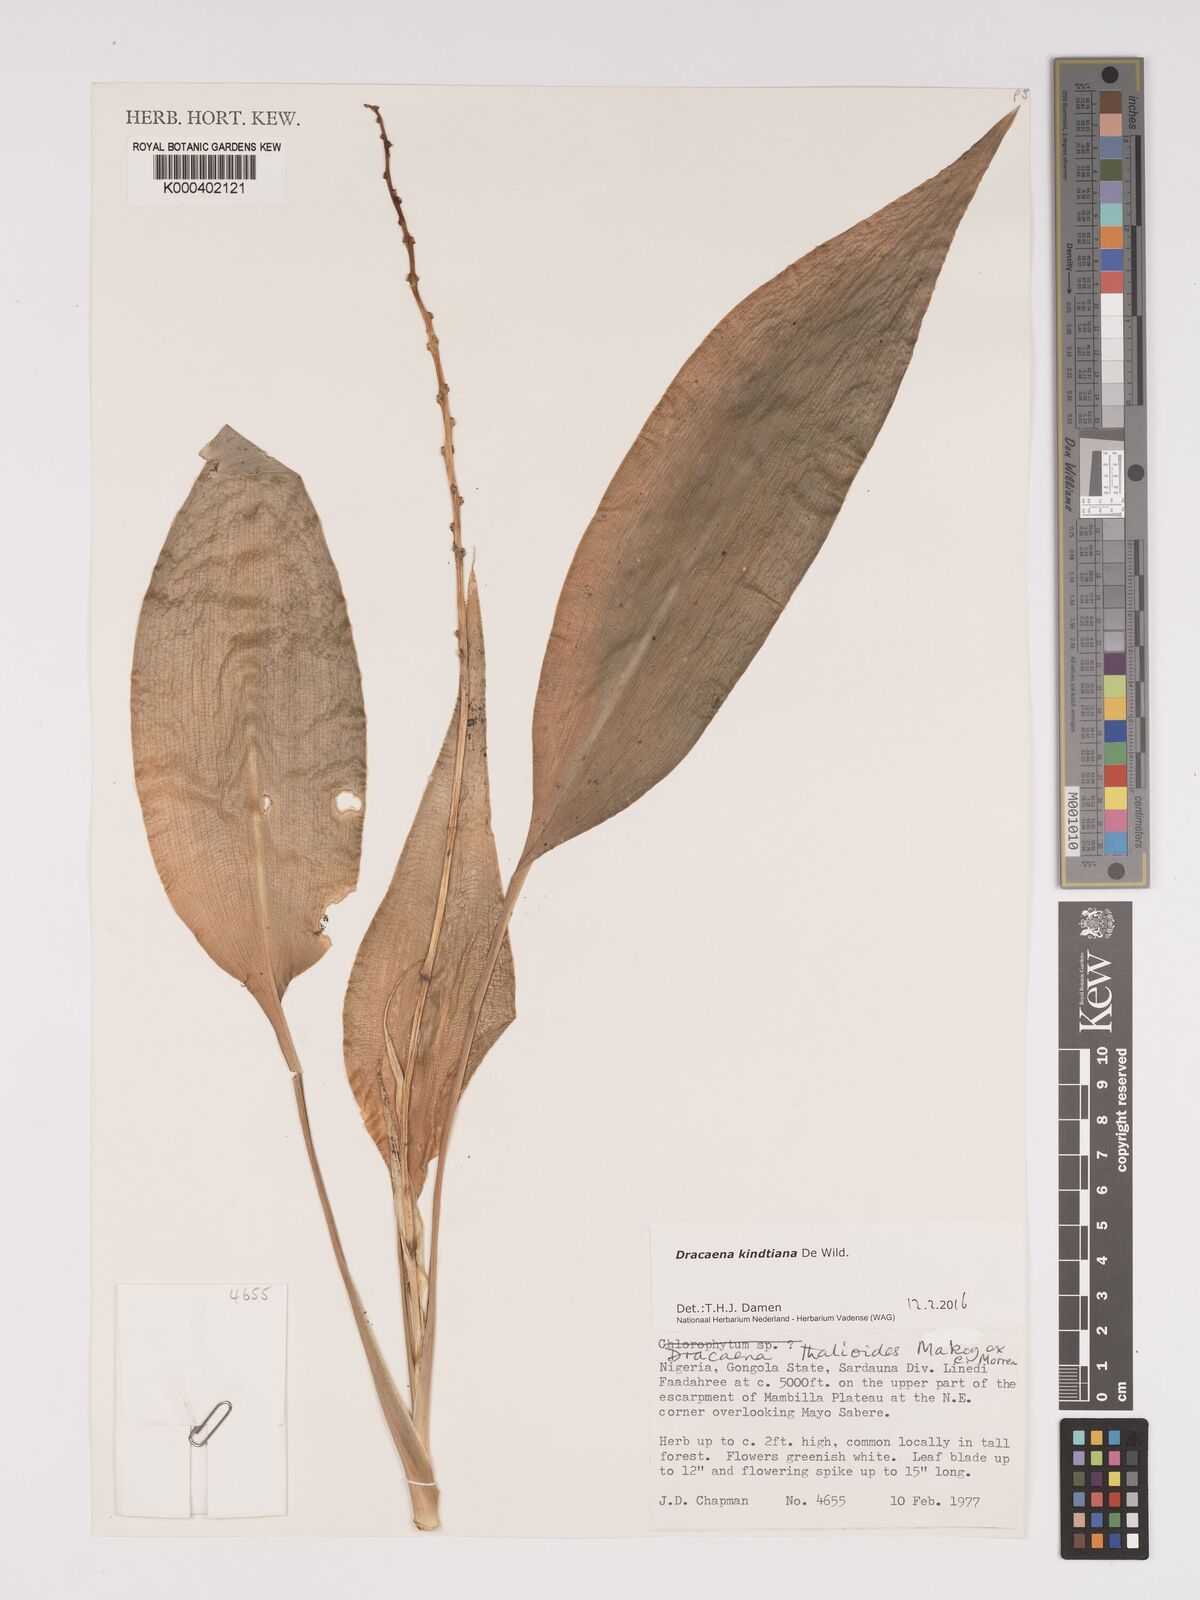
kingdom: Plantae
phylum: Tracheophyta
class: Liliopsida
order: Asparagales
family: Asparagaceae
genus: Dracaena
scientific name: Dracaena kindtiana
